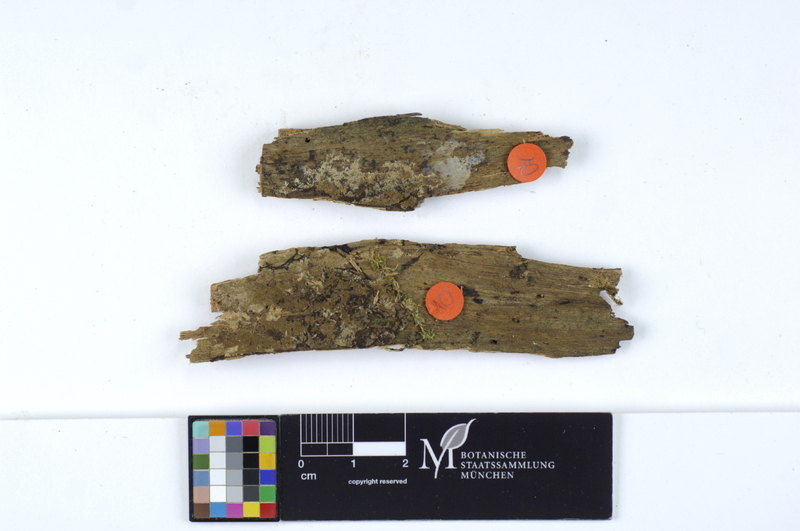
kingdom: Plantae
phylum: Tracheophyta
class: Pinopsida
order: Pinales
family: Pinaceae
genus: Pinus
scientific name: Pinus
